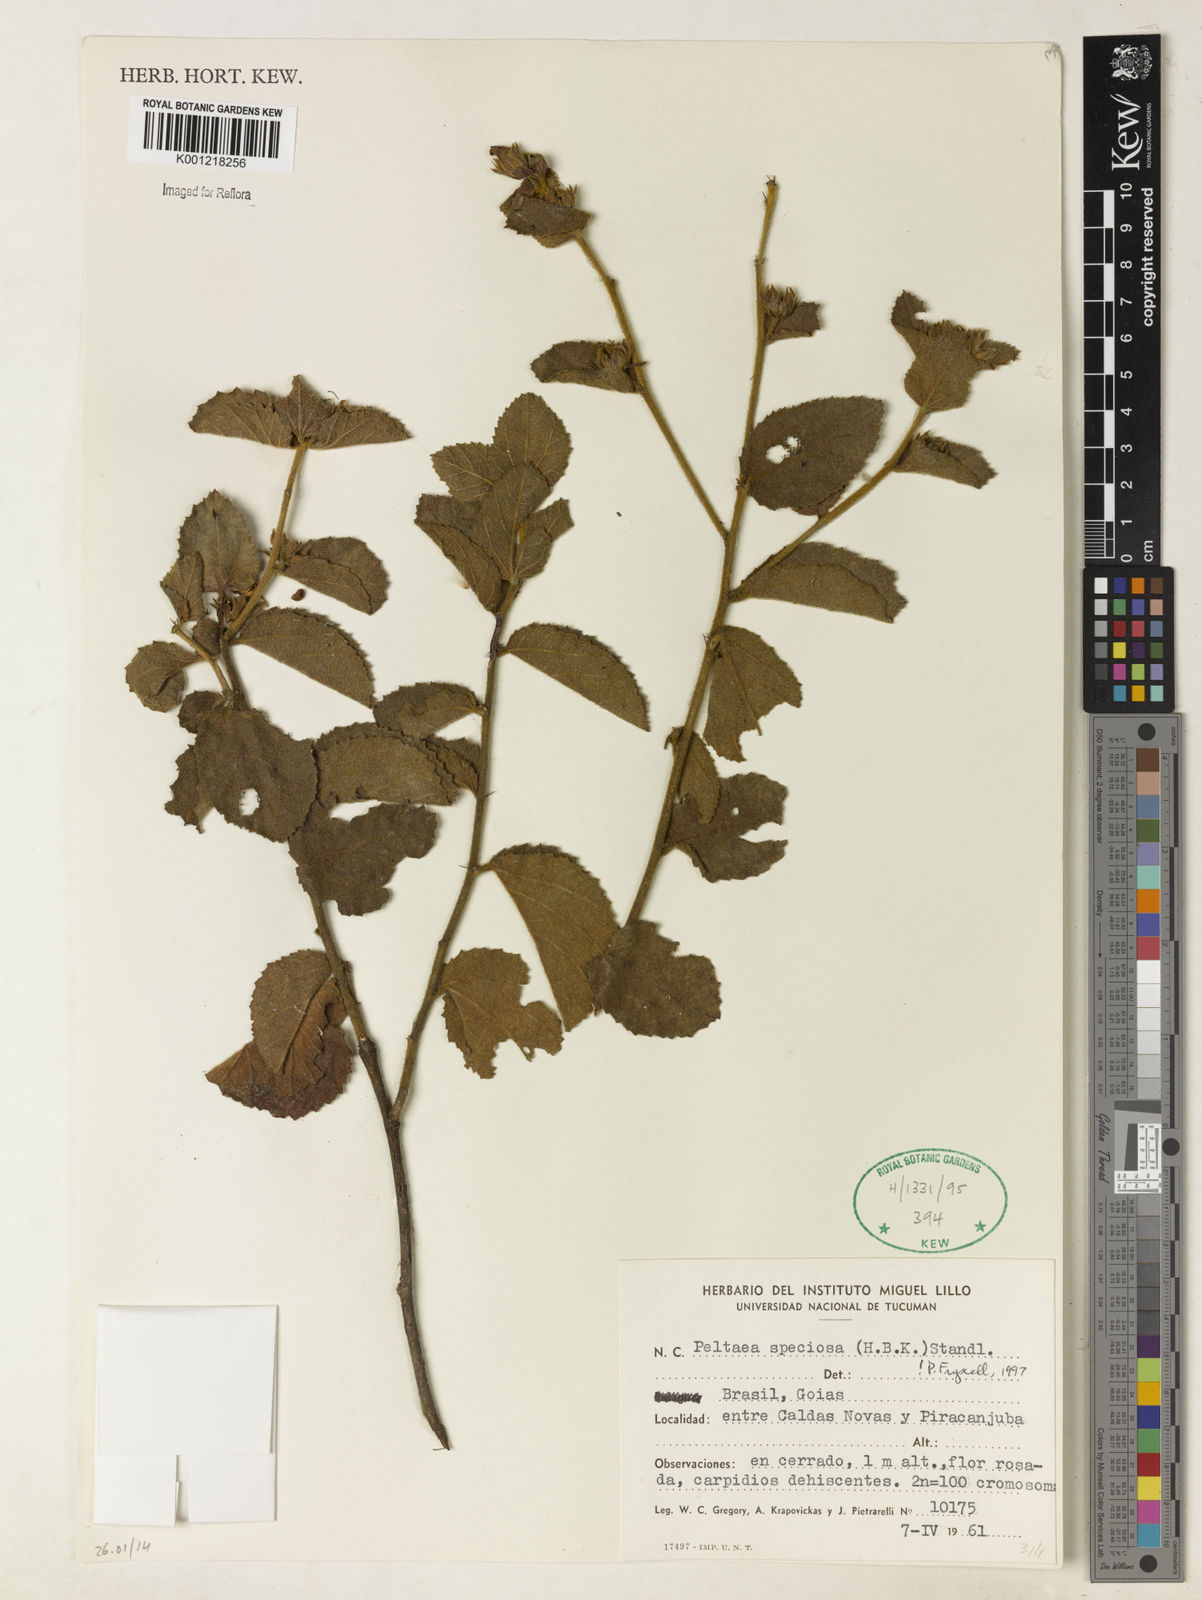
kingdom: Plantae
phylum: Tracheophyta
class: Magnoliopsida
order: Malvales
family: Malvaceae
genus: Peltaea
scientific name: Peltaea speciosa
